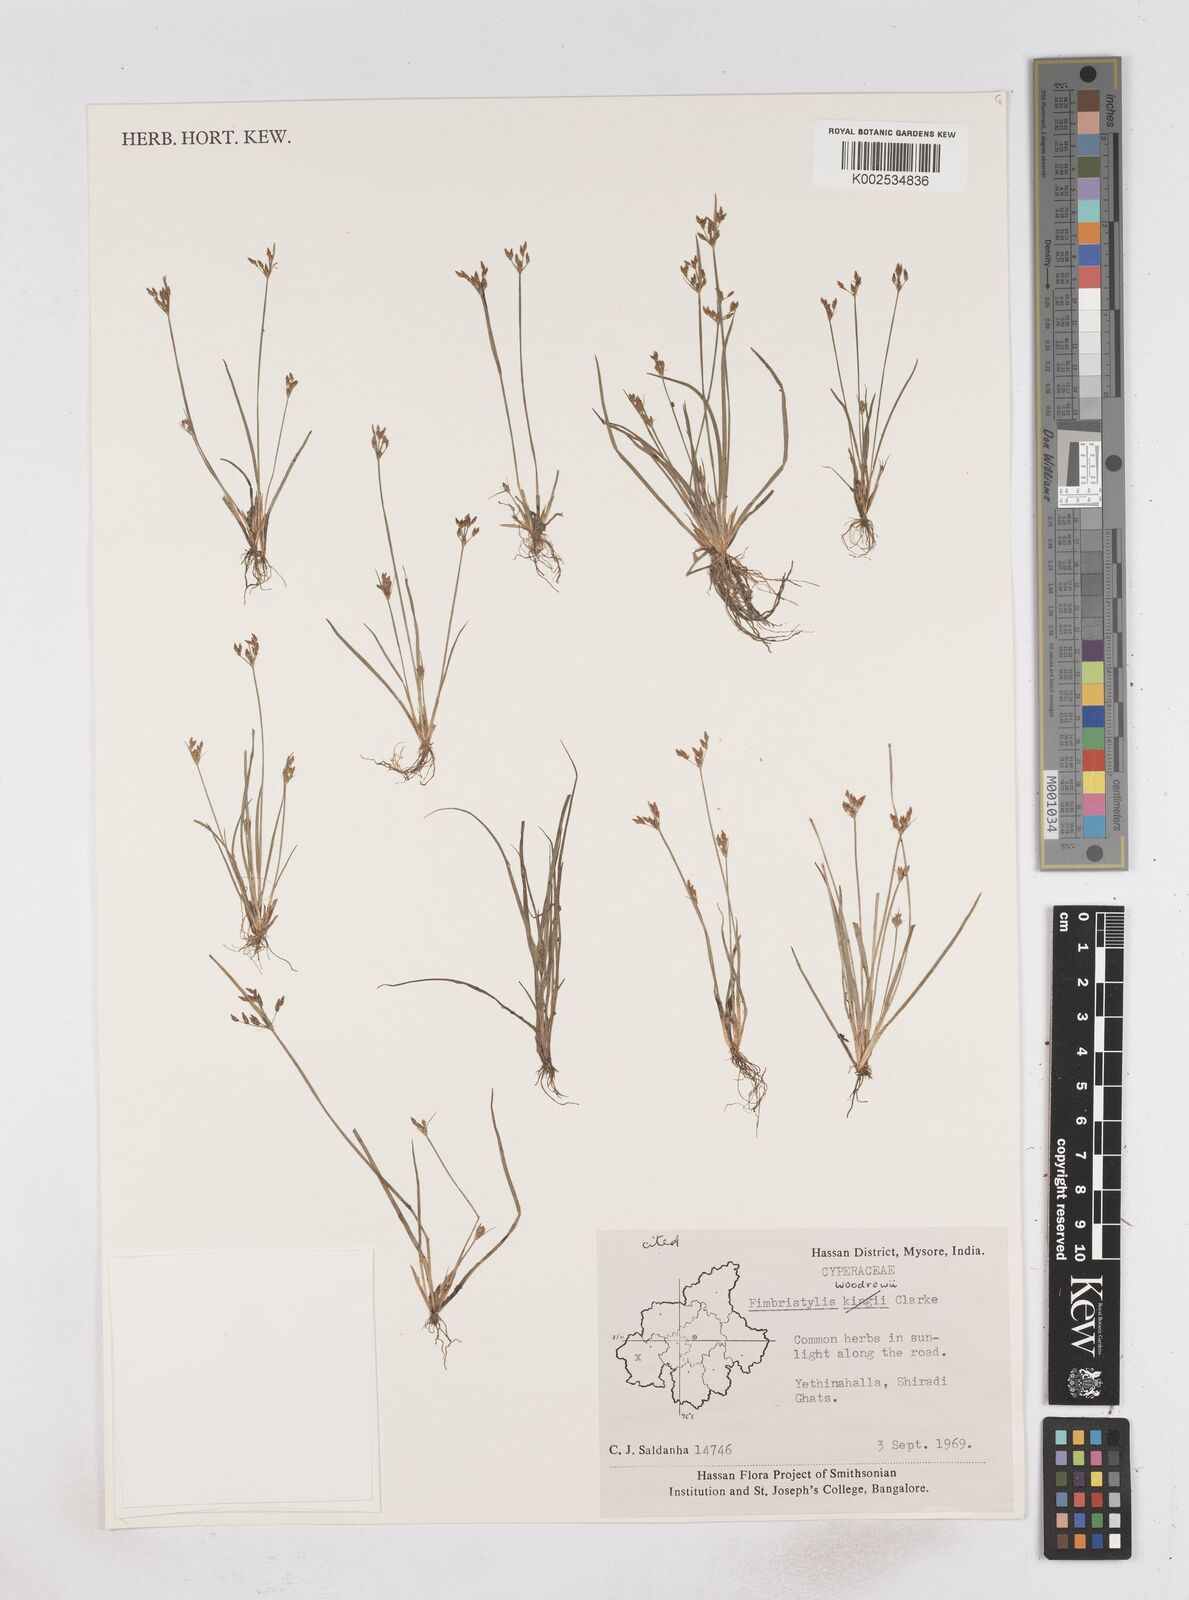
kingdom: Plantae
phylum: Tracheophyta
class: Liliopsida
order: Poales
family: Cyperaceae
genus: Fimbristylis
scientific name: Fimbristylis woodrowii
